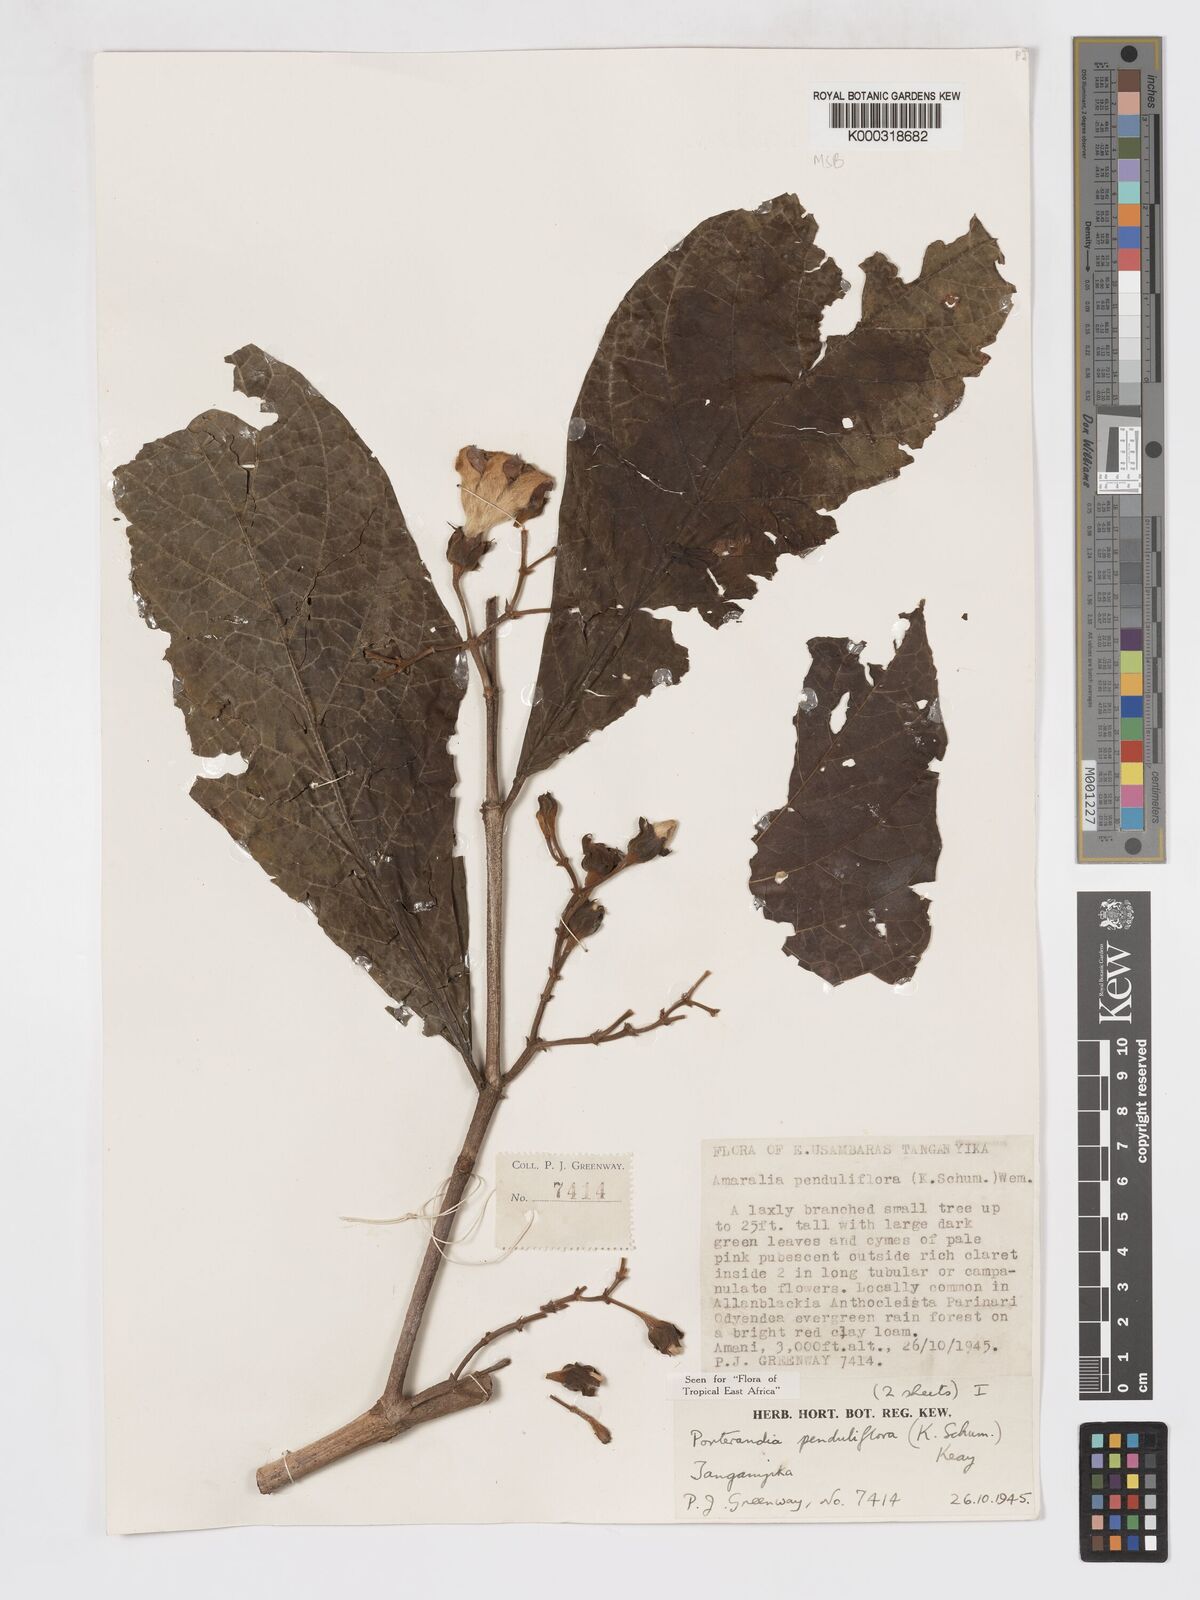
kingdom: Plantae
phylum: Tracheophyta
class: Magnoliopsida
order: Gentianales
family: Rubiaceae
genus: Aoranthe
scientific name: Aoranthe penduliflora
